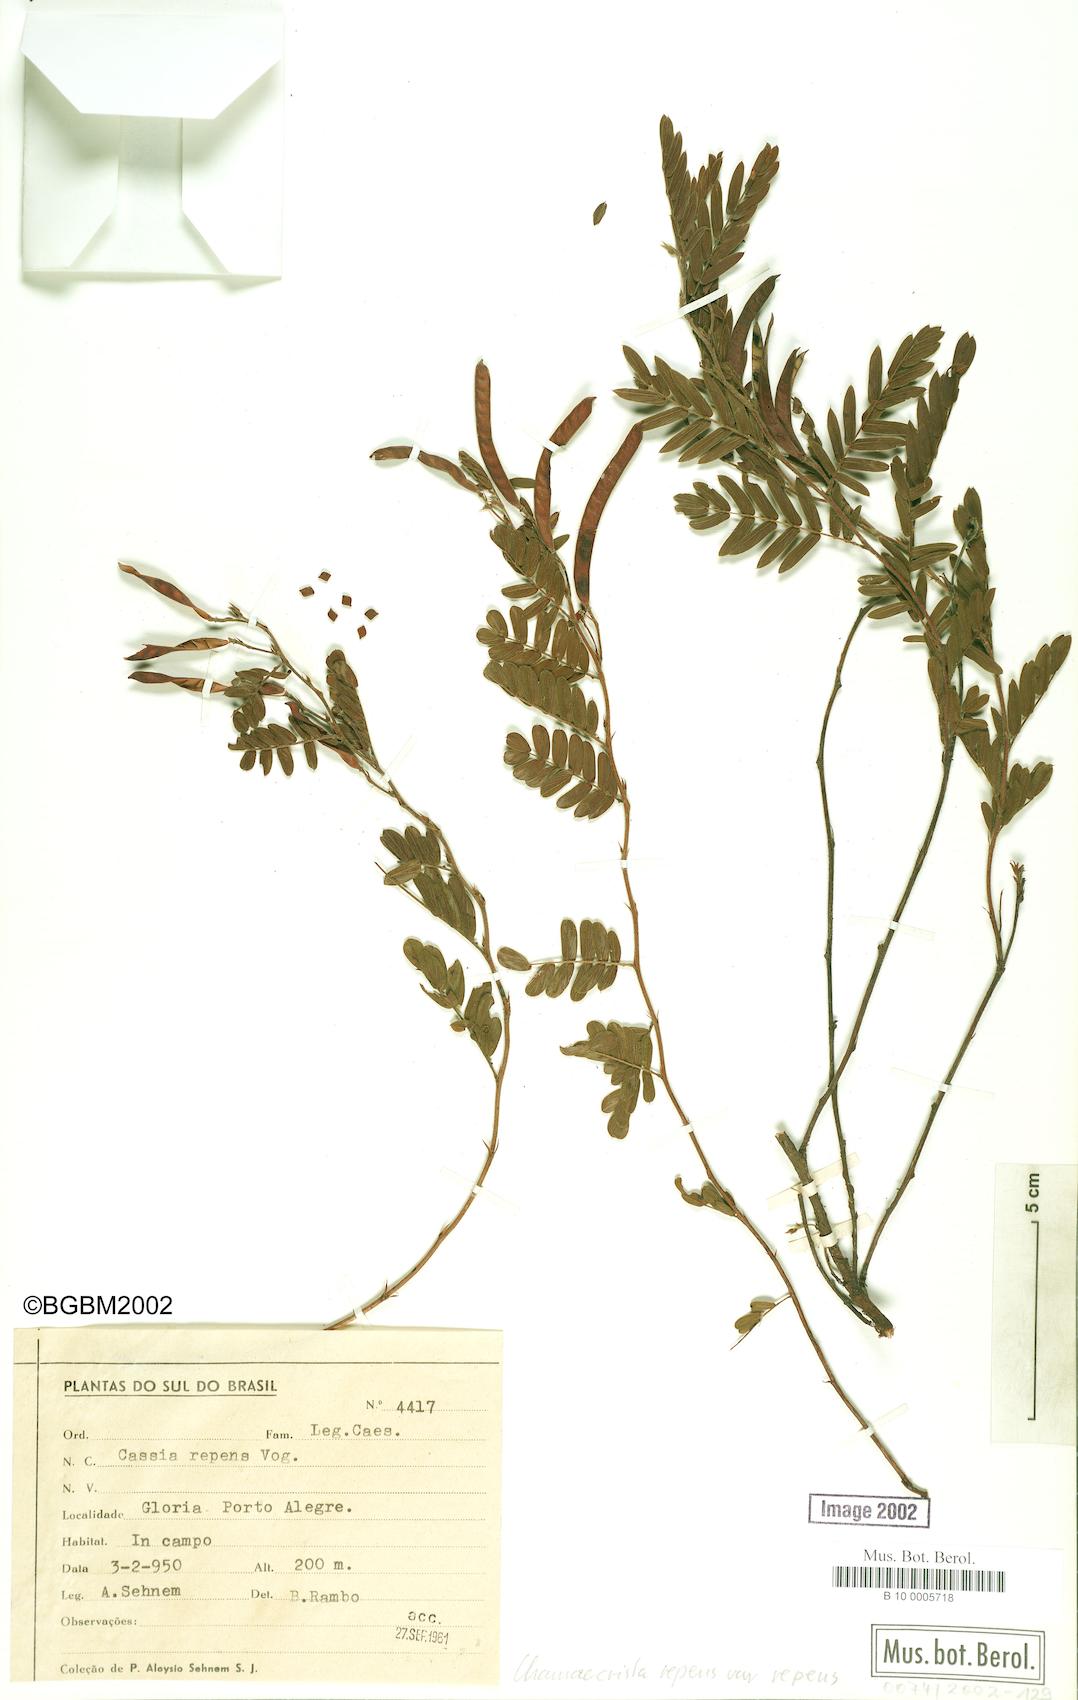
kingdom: Plantae
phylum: Tracheophyta
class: Magnoliopsida
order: Fabales
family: Fabaceae
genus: Chamaecrista
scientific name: Chamaecrista repens
